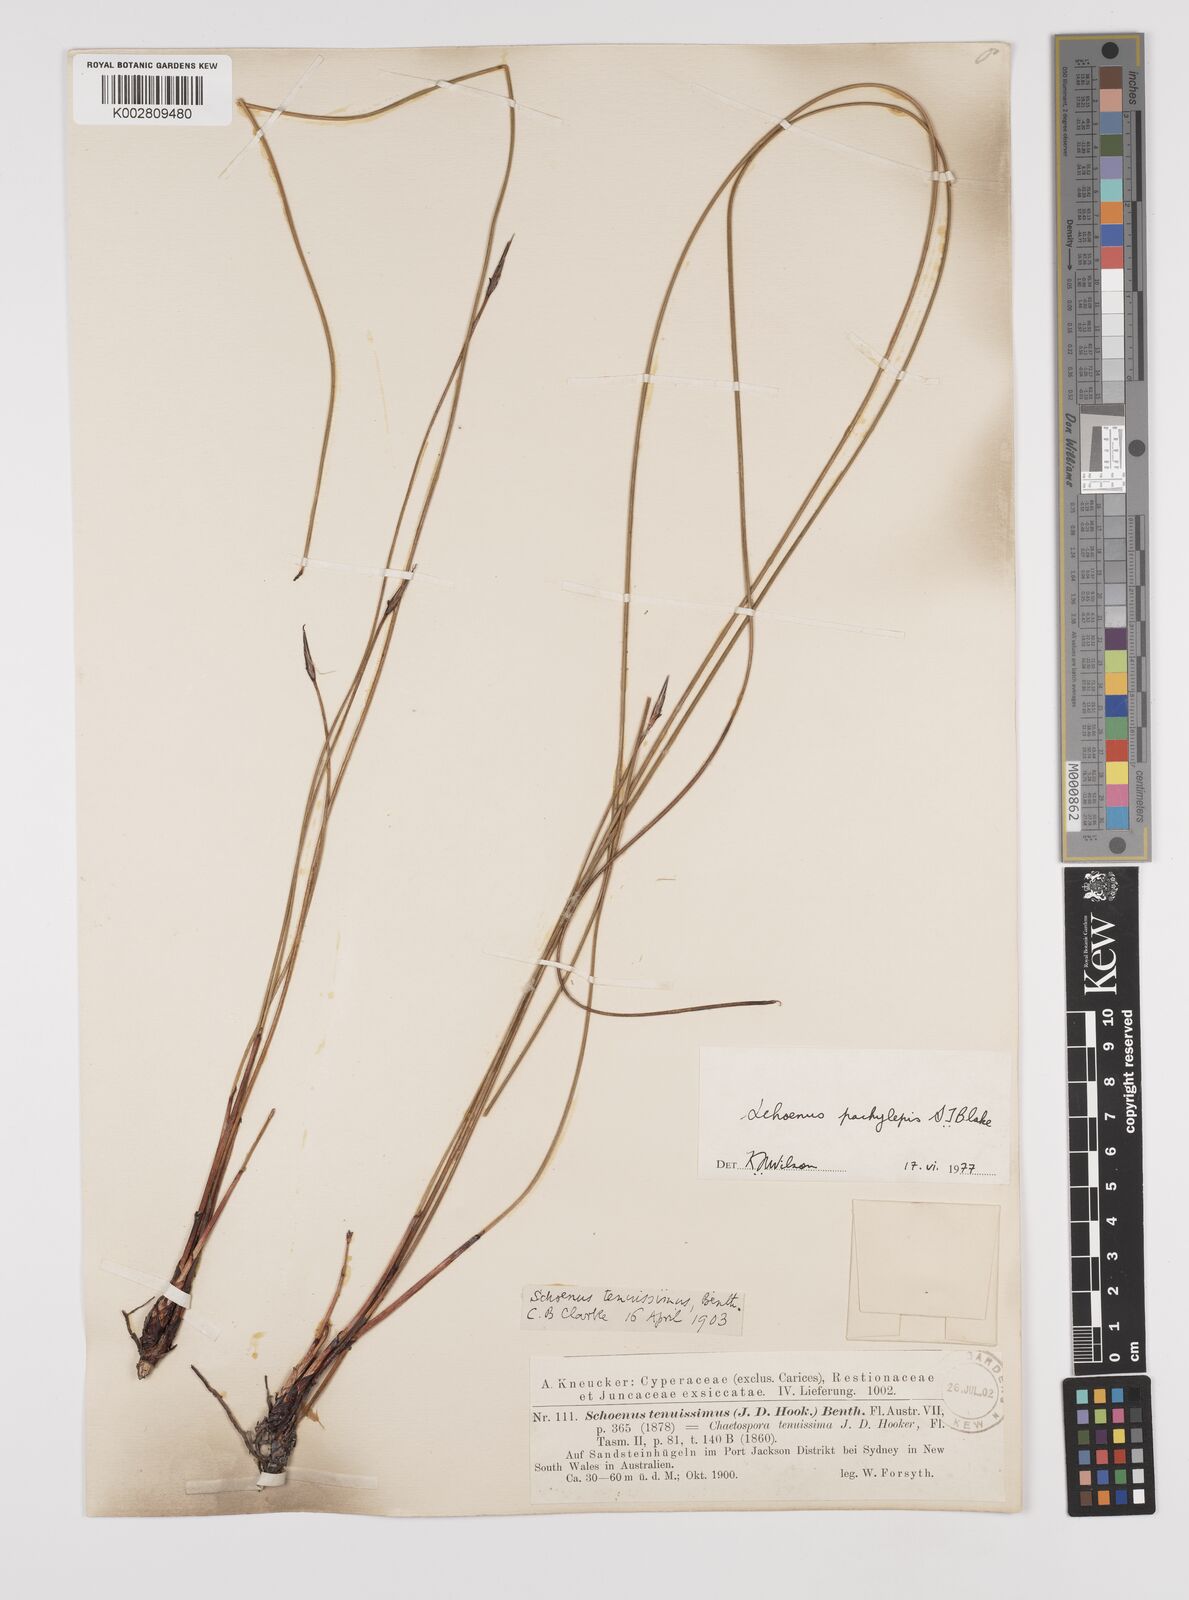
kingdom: Plantae
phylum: Tracheophyta
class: Liliopsida
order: Poales
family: Cyperaceae
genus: Schoenus
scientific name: Schoenus lepidosperma
